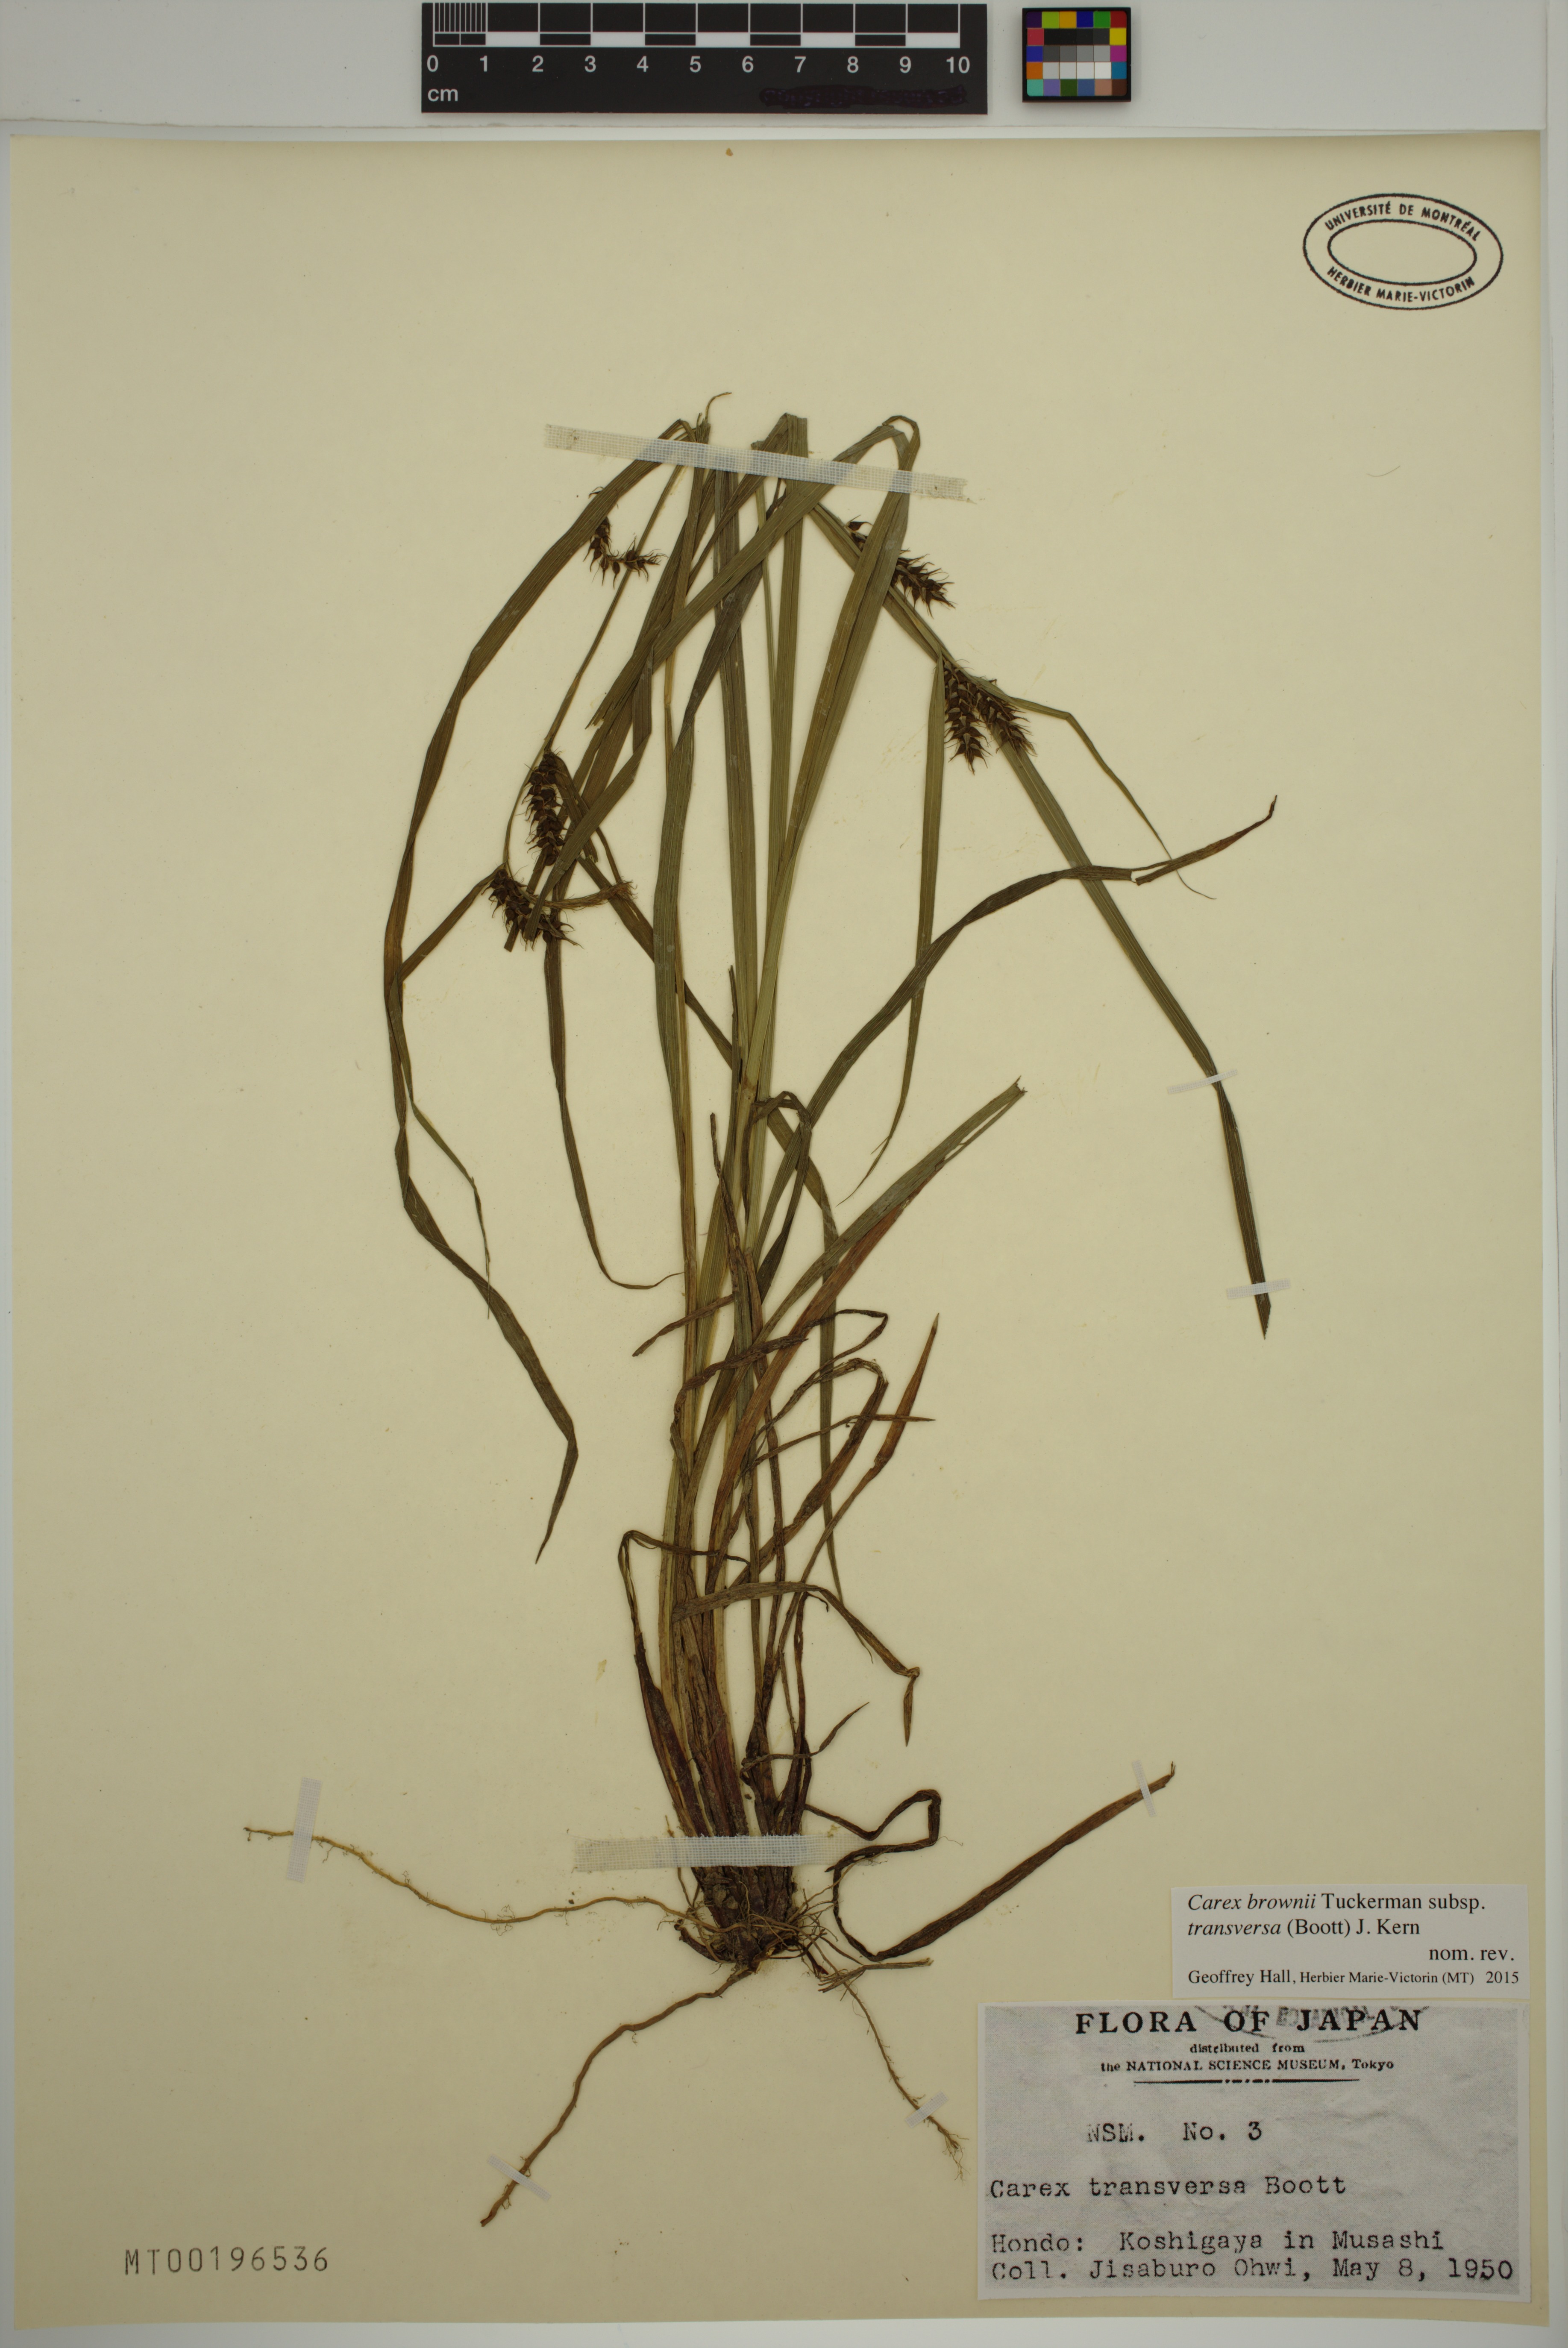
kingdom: Plantae
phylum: Tracheophyta
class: Liliopsida
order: Poales
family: Cyperaceae
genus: Carex
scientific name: Carex brownii
